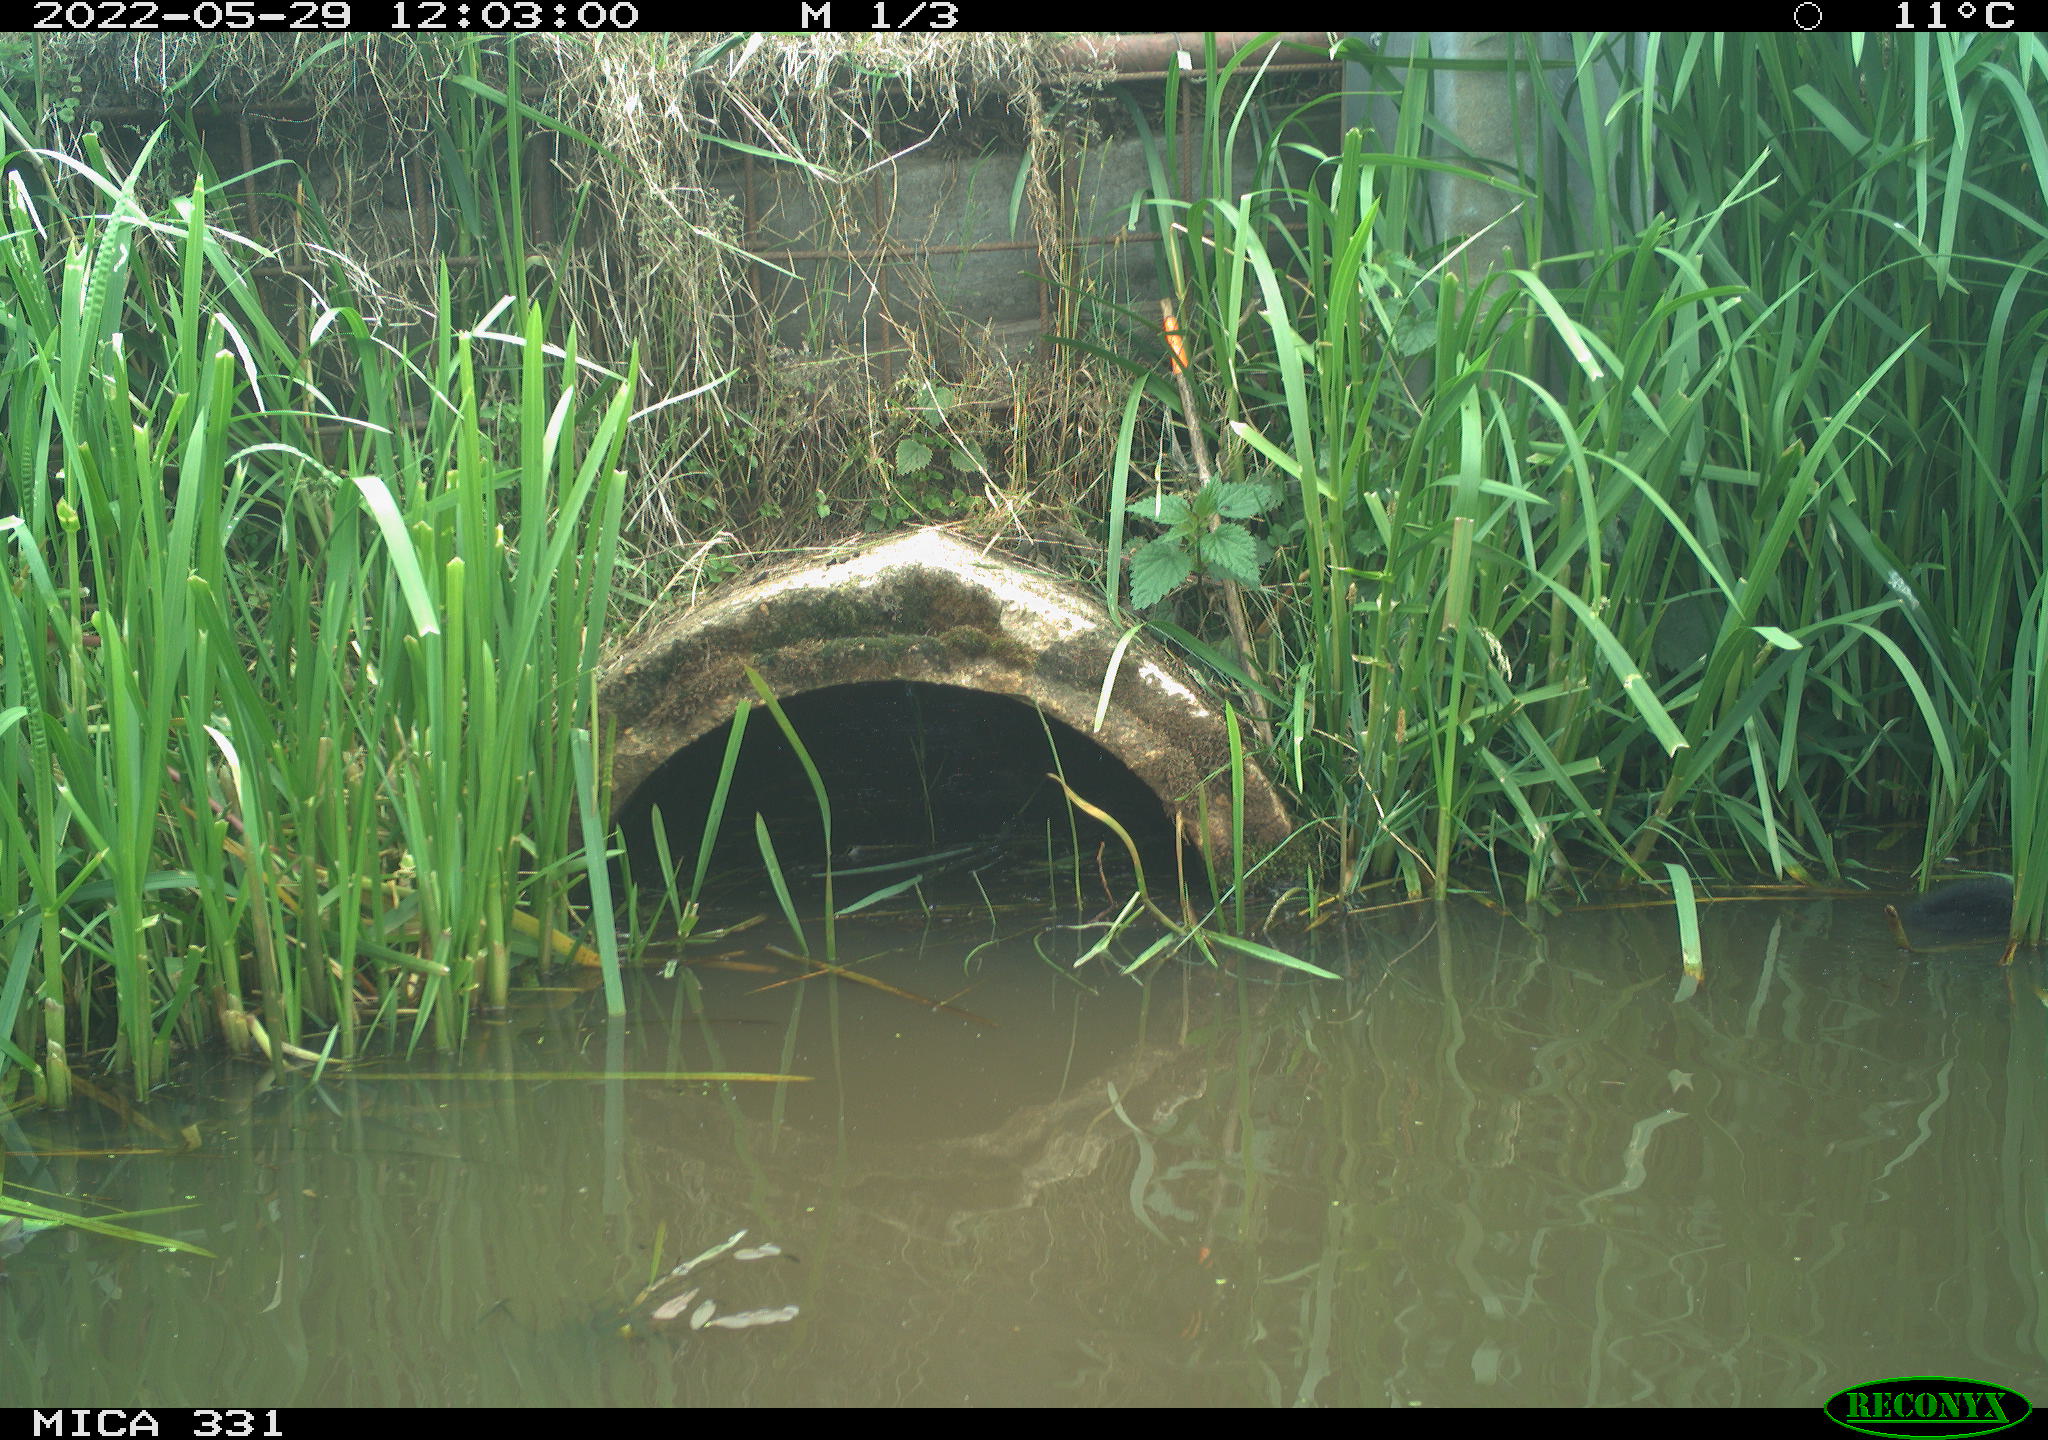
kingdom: Animalia
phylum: Chordata
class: Aves
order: Gruiformes
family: Rallidae
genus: Fulica
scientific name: Fulica atra
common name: Eurasian coot
